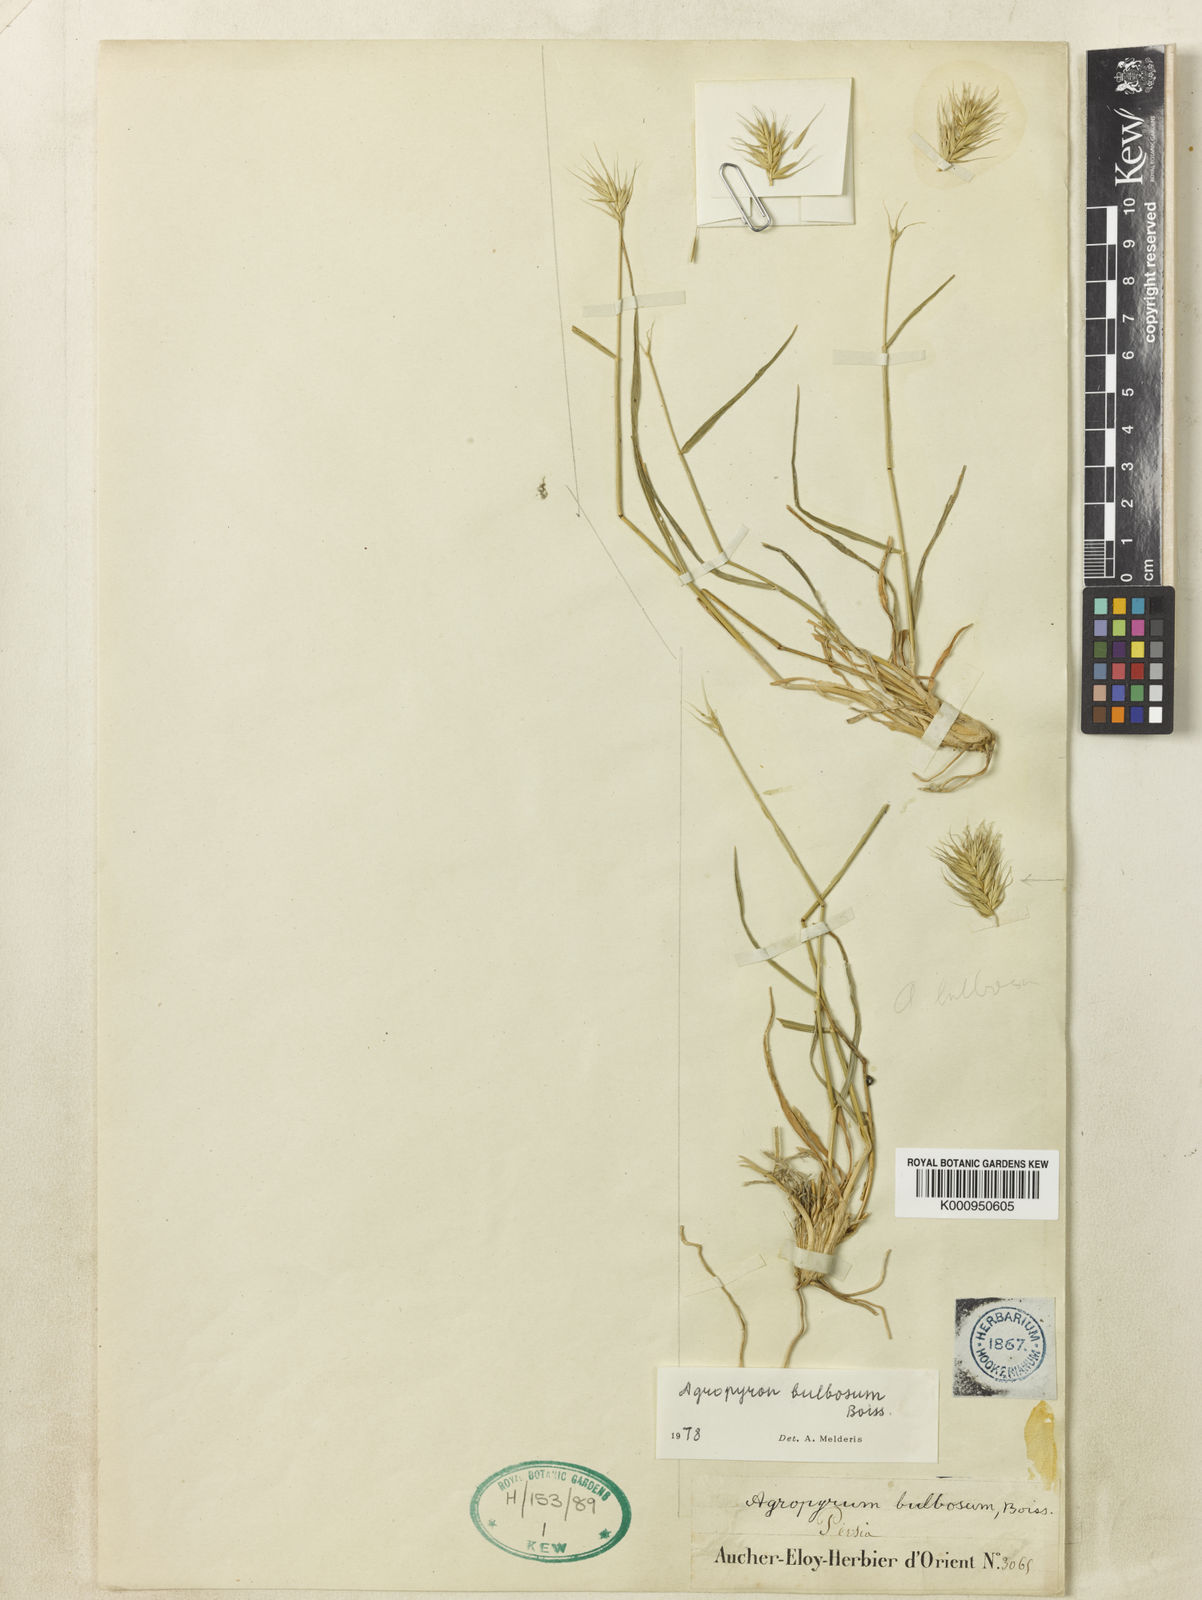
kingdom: Plantae
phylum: Tracheophyta
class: Liliopsida
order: Poales
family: Poaceae
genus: Agropyron
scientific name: Agropyron bulbosum
